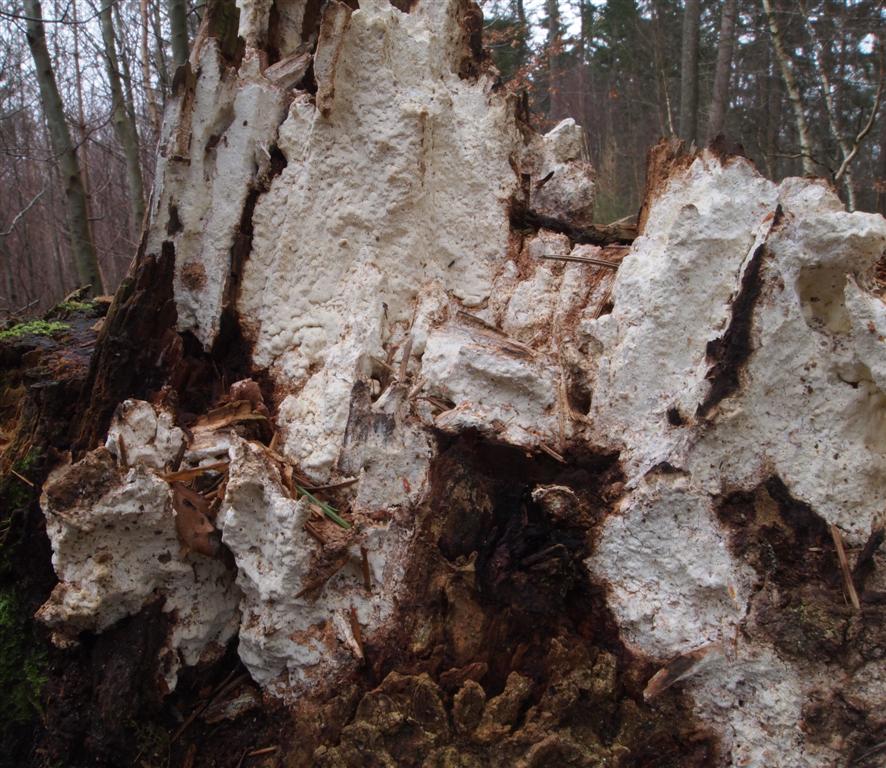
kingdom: Fungi
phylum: Basidiomycota
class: Agaricomycetes
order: Polyporales
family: Fomitopsidaceae
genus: Daedalea
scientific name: Daedalea xantha
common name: gul sejporesvamp
